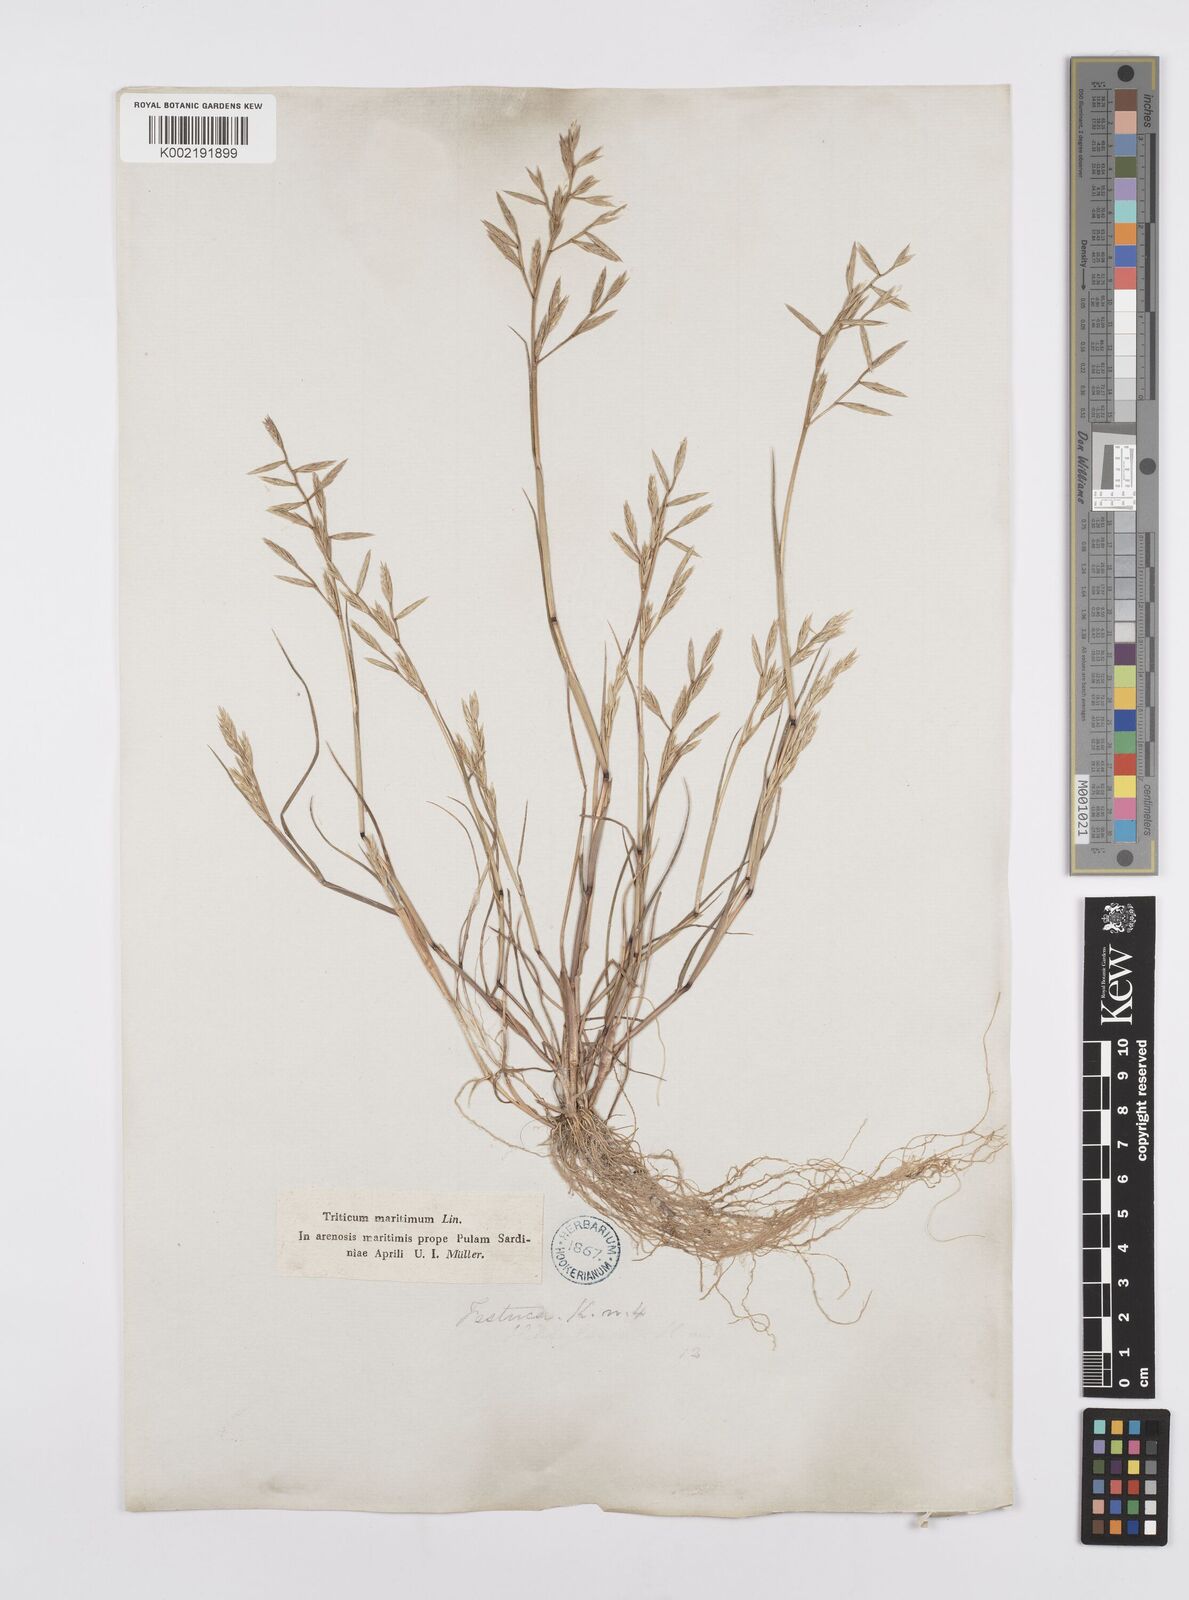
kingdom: Plantae
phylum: Tracheophyta
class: Liliopsida
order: Poales
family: Poaceae
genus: Cutandia
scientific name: Cutandia maritima
